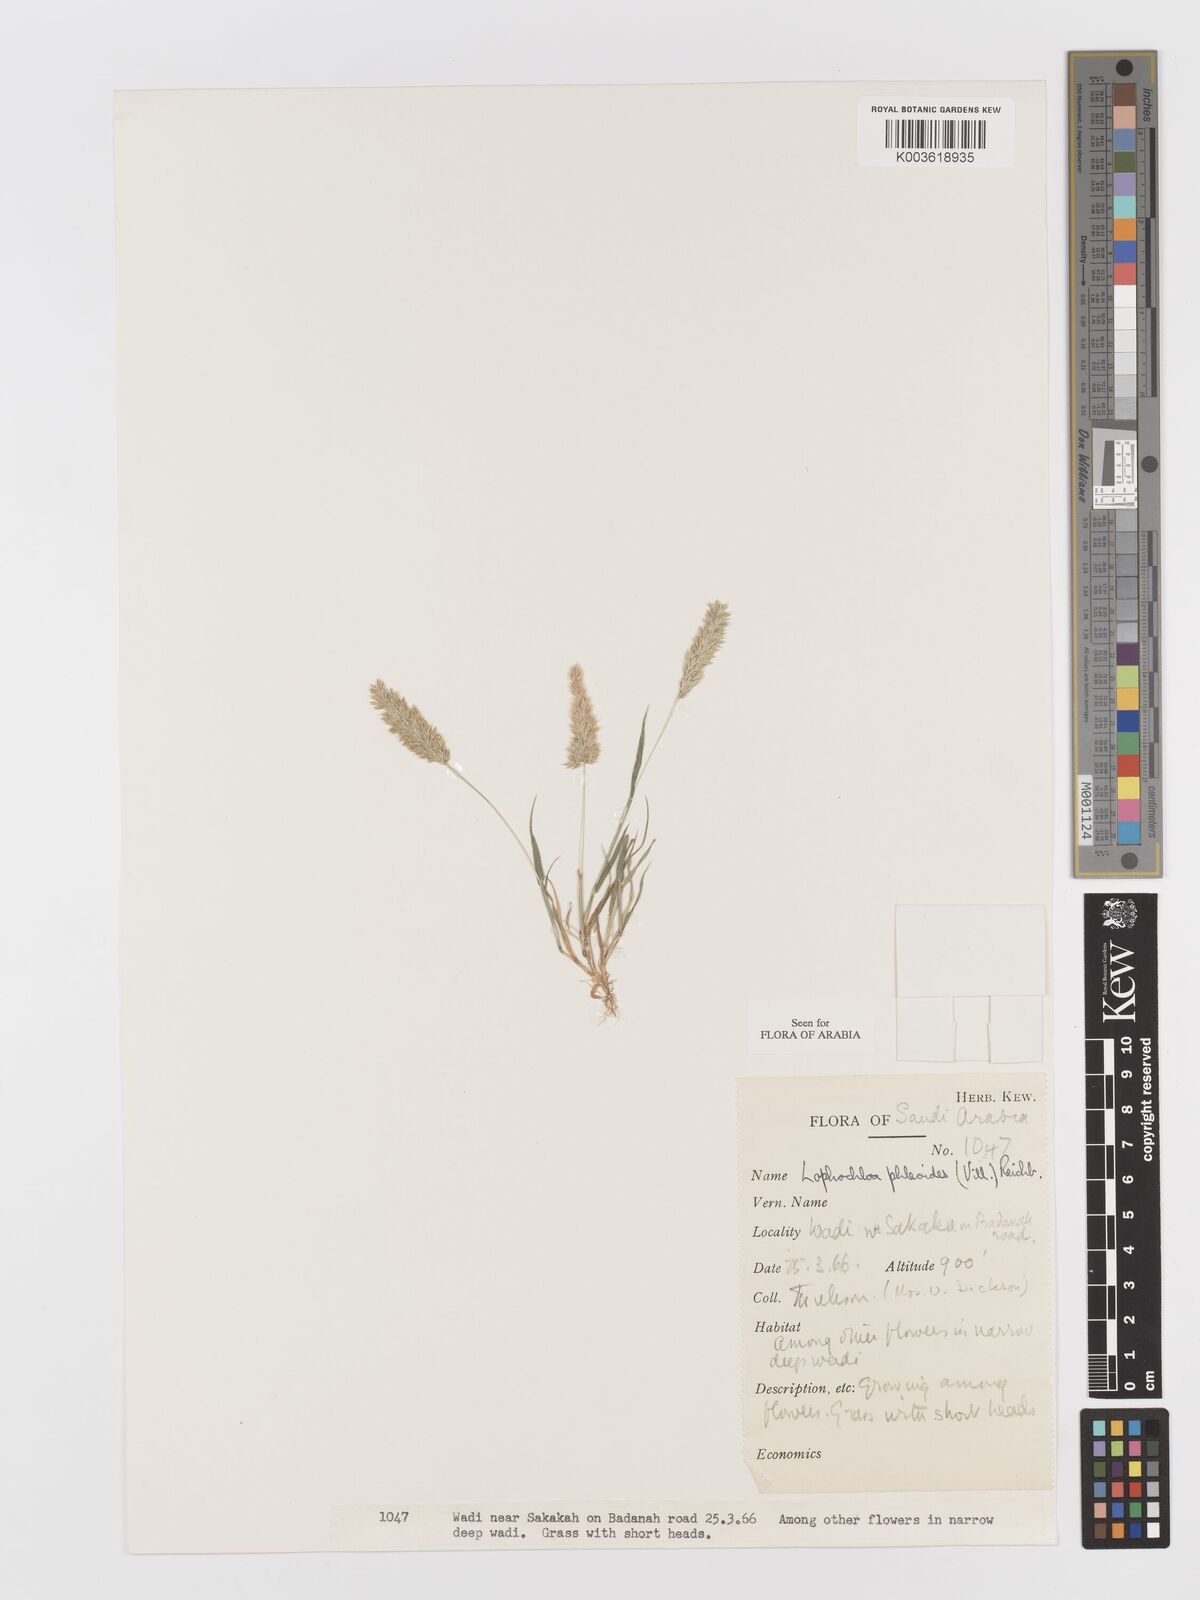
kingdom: Plantae
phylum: Tracheophyta
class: Liliopsida
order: Poales
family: Poaceae
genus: Rostraria
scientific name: Rostraria cristata
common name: Mediterranean hair-grass
